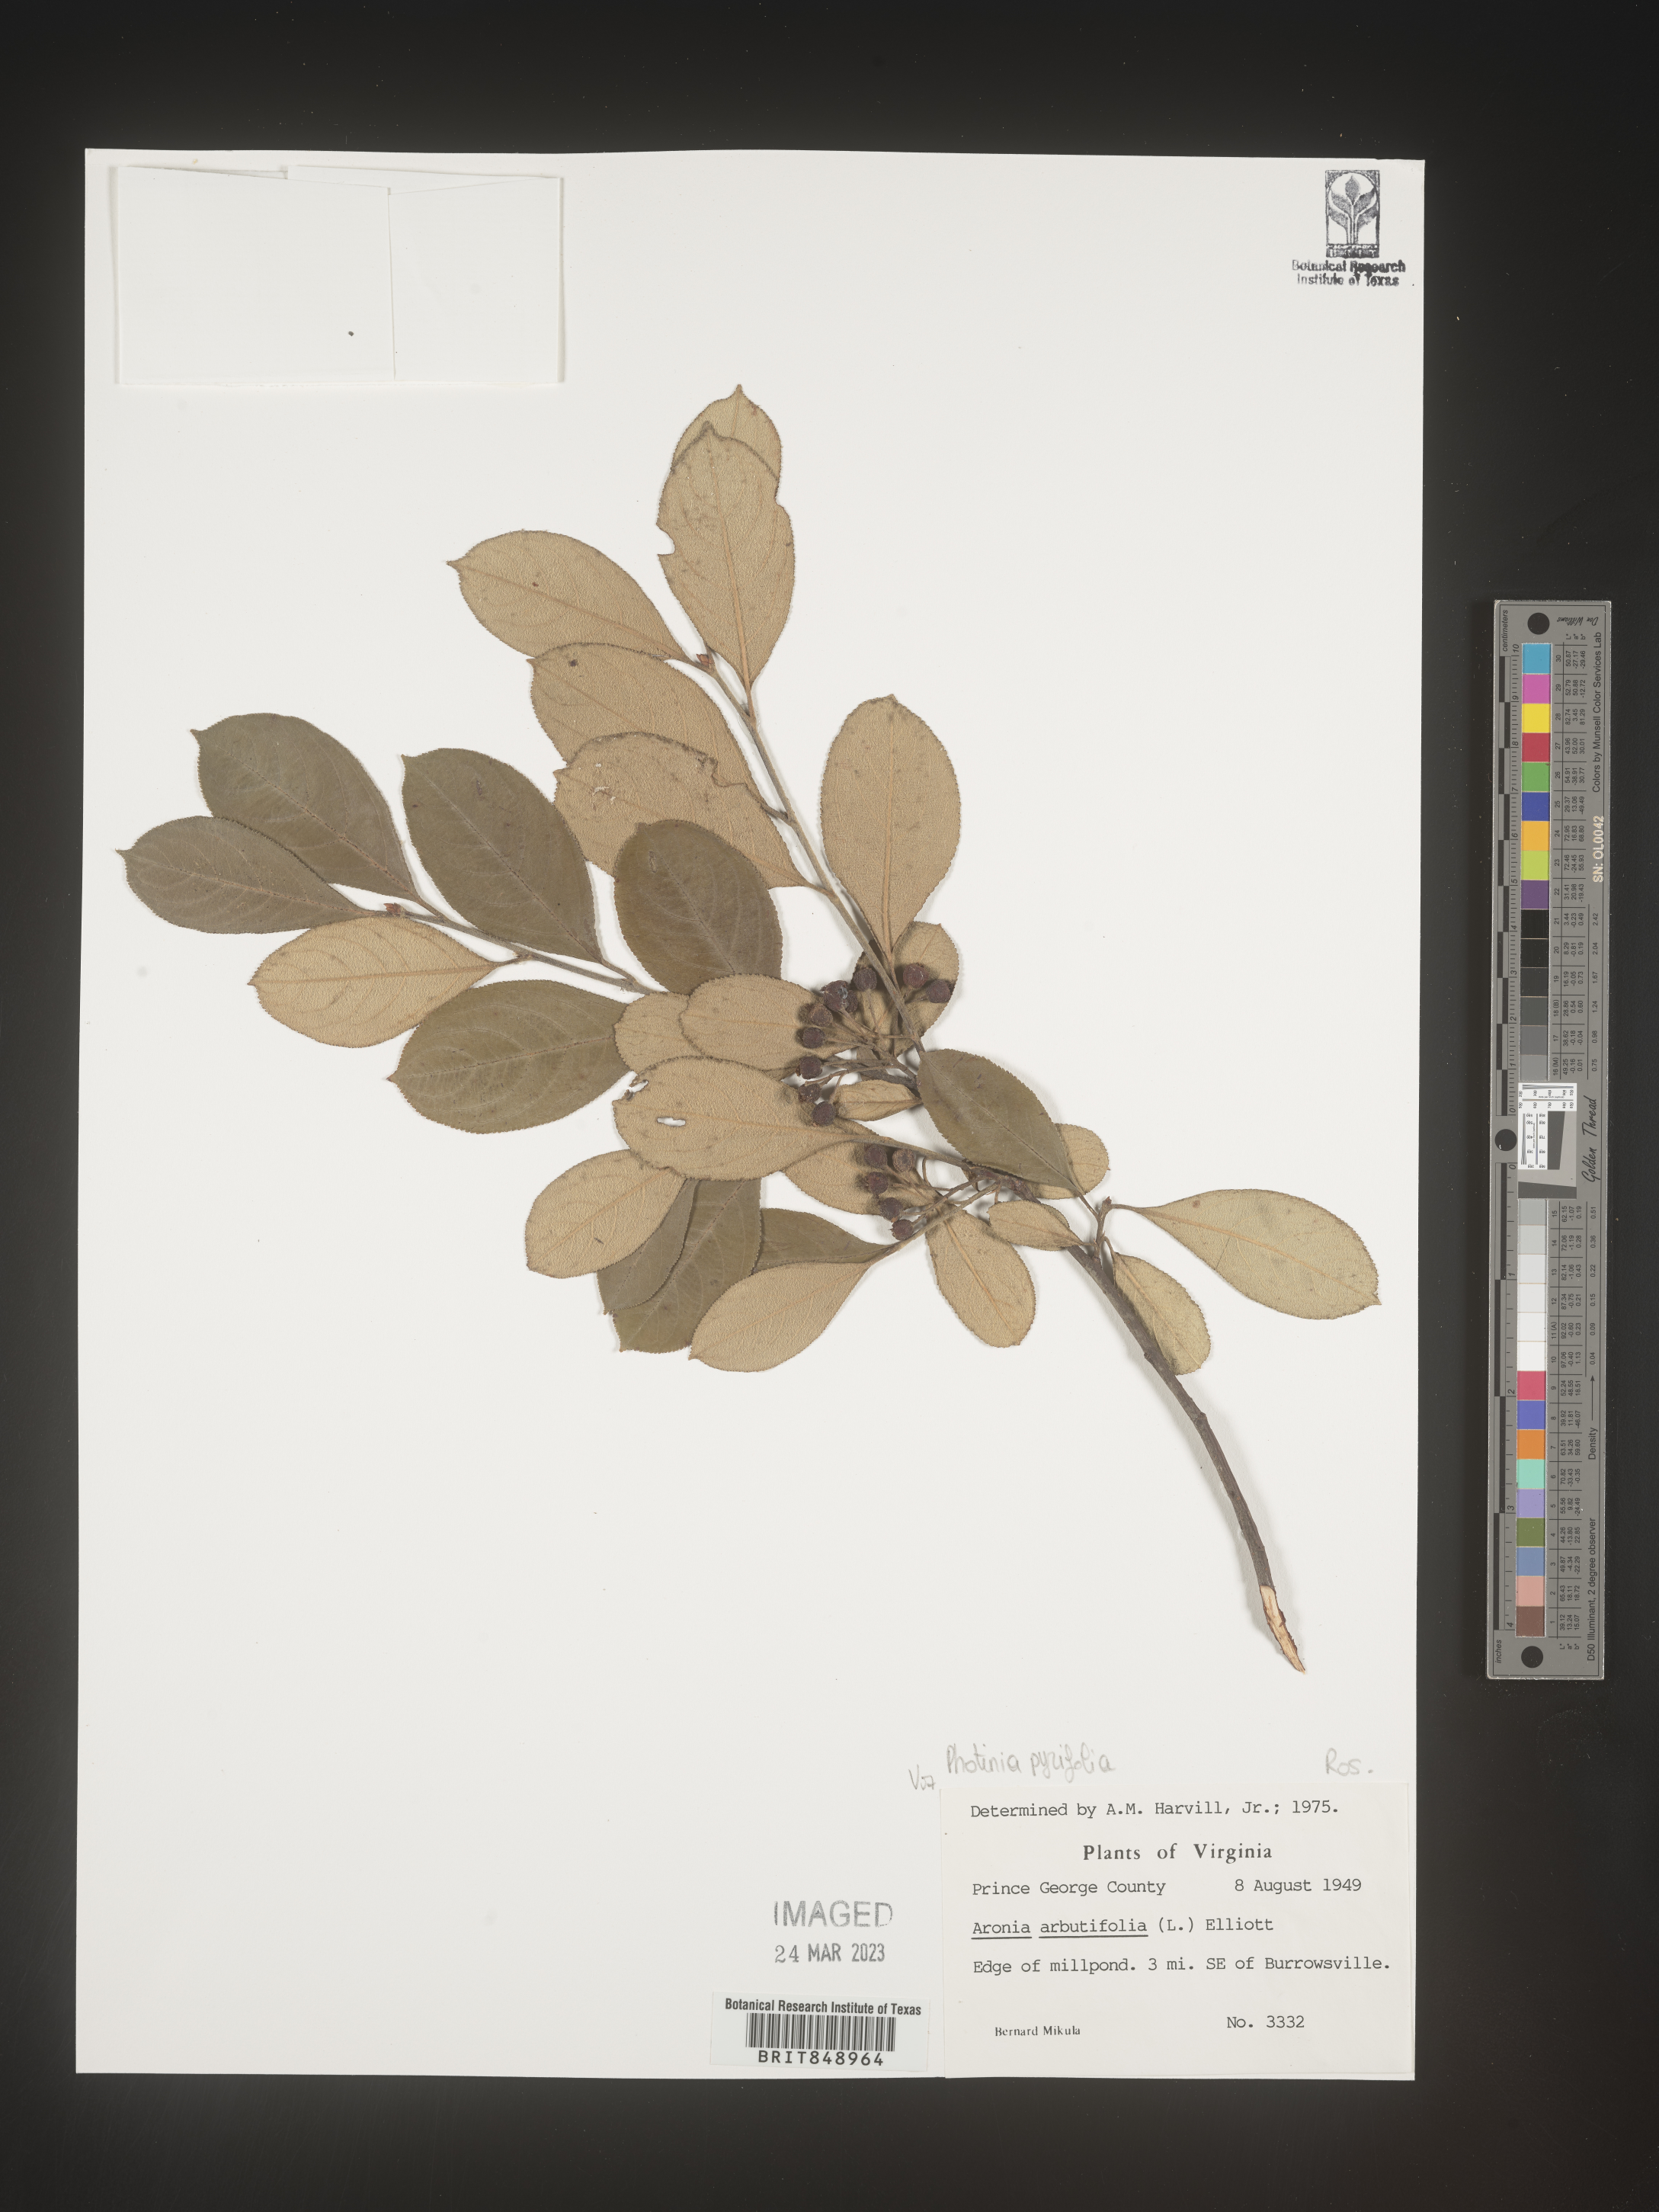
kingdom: Plantae
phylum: Tracheophyta
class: Magnoliopsida
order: Rosales
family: Rosaceae
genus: Photinia
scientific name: Photinia
